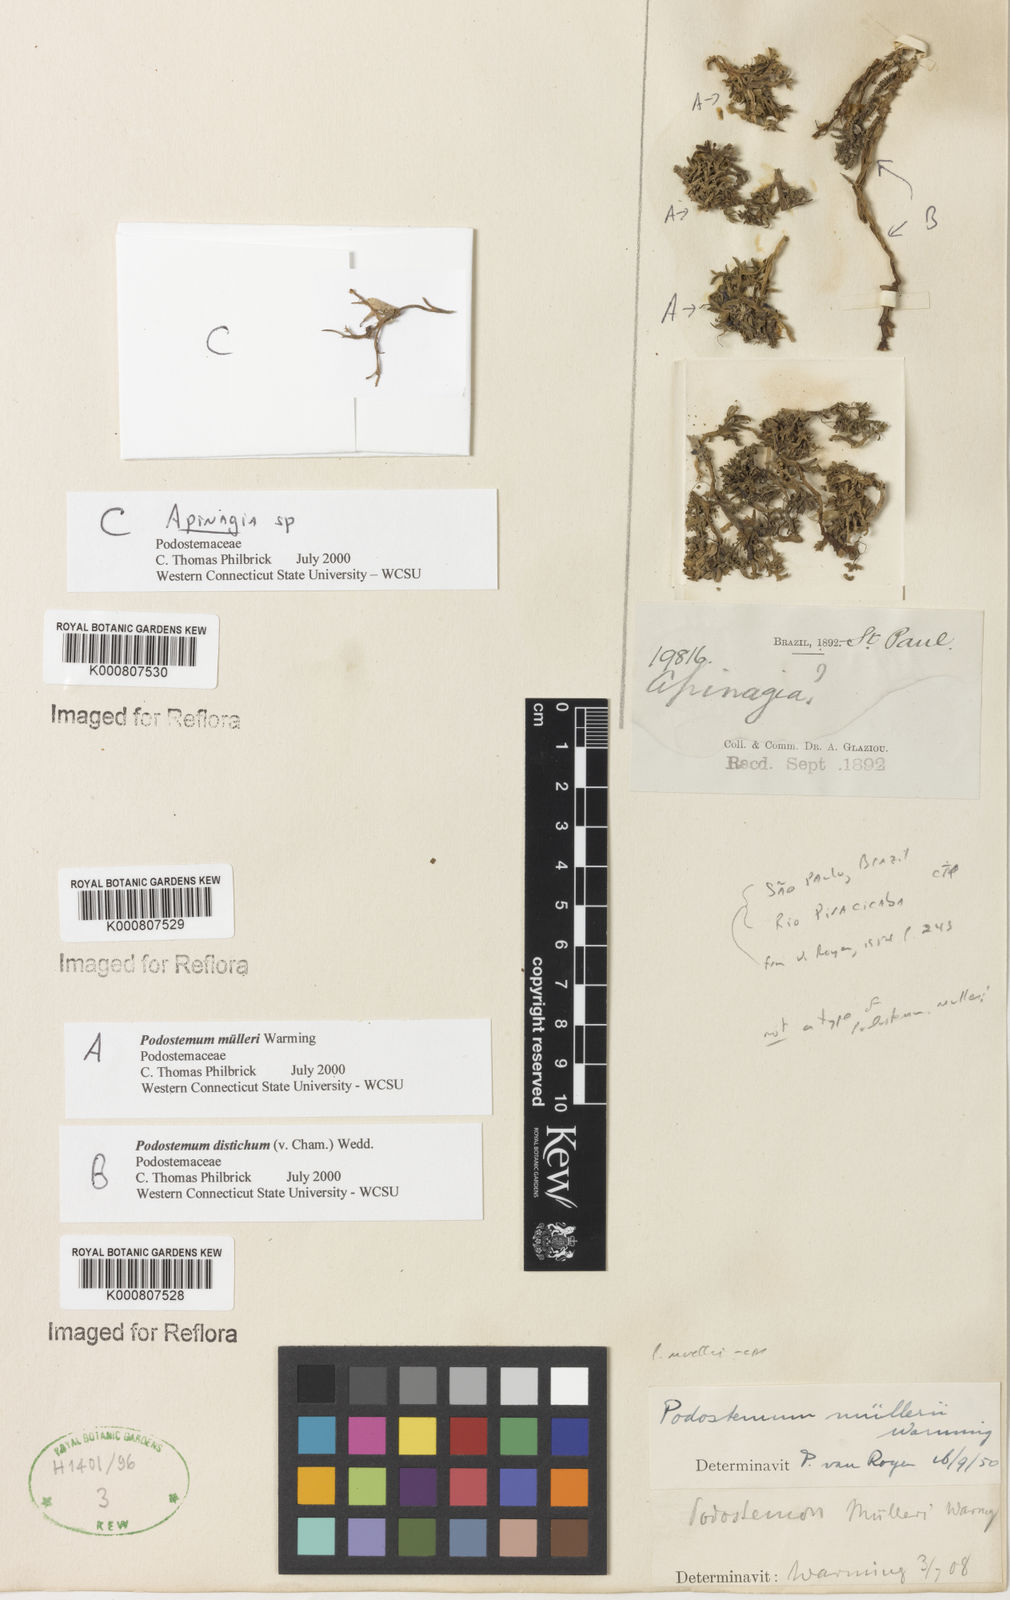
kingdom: Plantae
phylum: Tracheophyta
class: Magnoliopsida
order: Malpighiales
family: Podostemaceae
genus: Podostemum
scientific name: Podostemum muelleri
